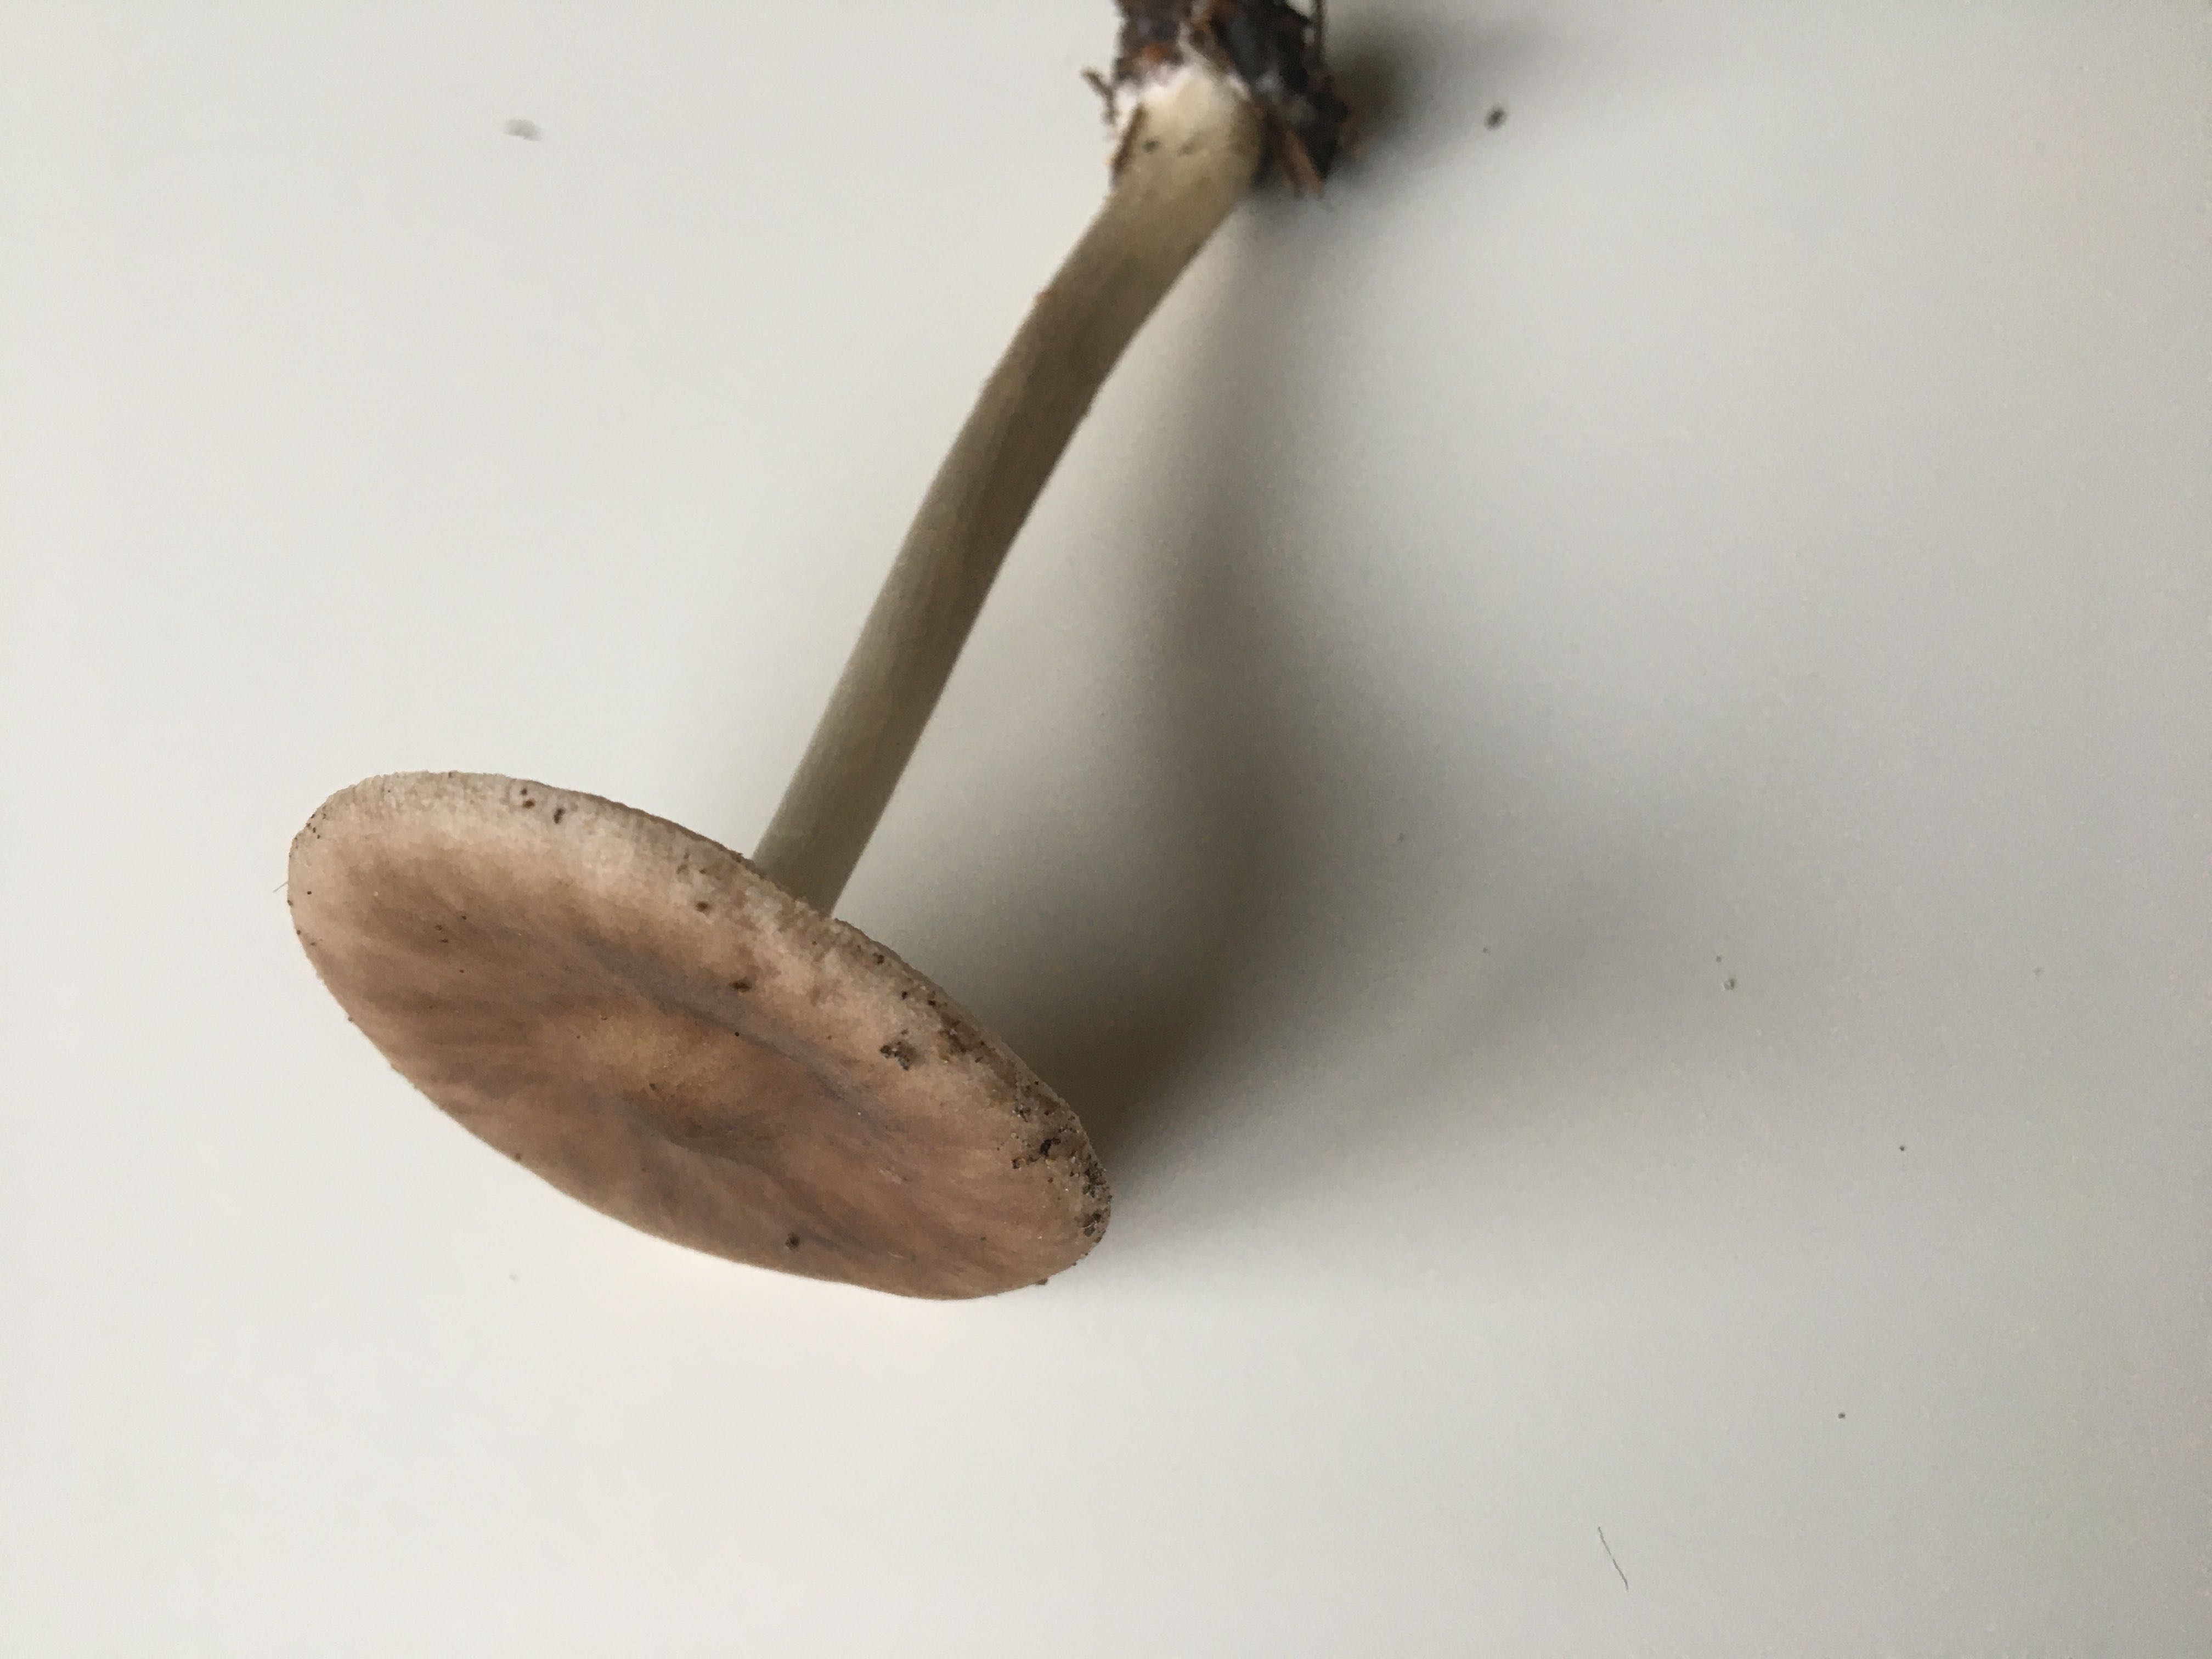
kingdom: Fungi
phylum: Basidiomycota
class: Agaricomycetes
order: Agaricales
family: Pluteaceae
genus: Pluteus
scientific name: Pluteus
